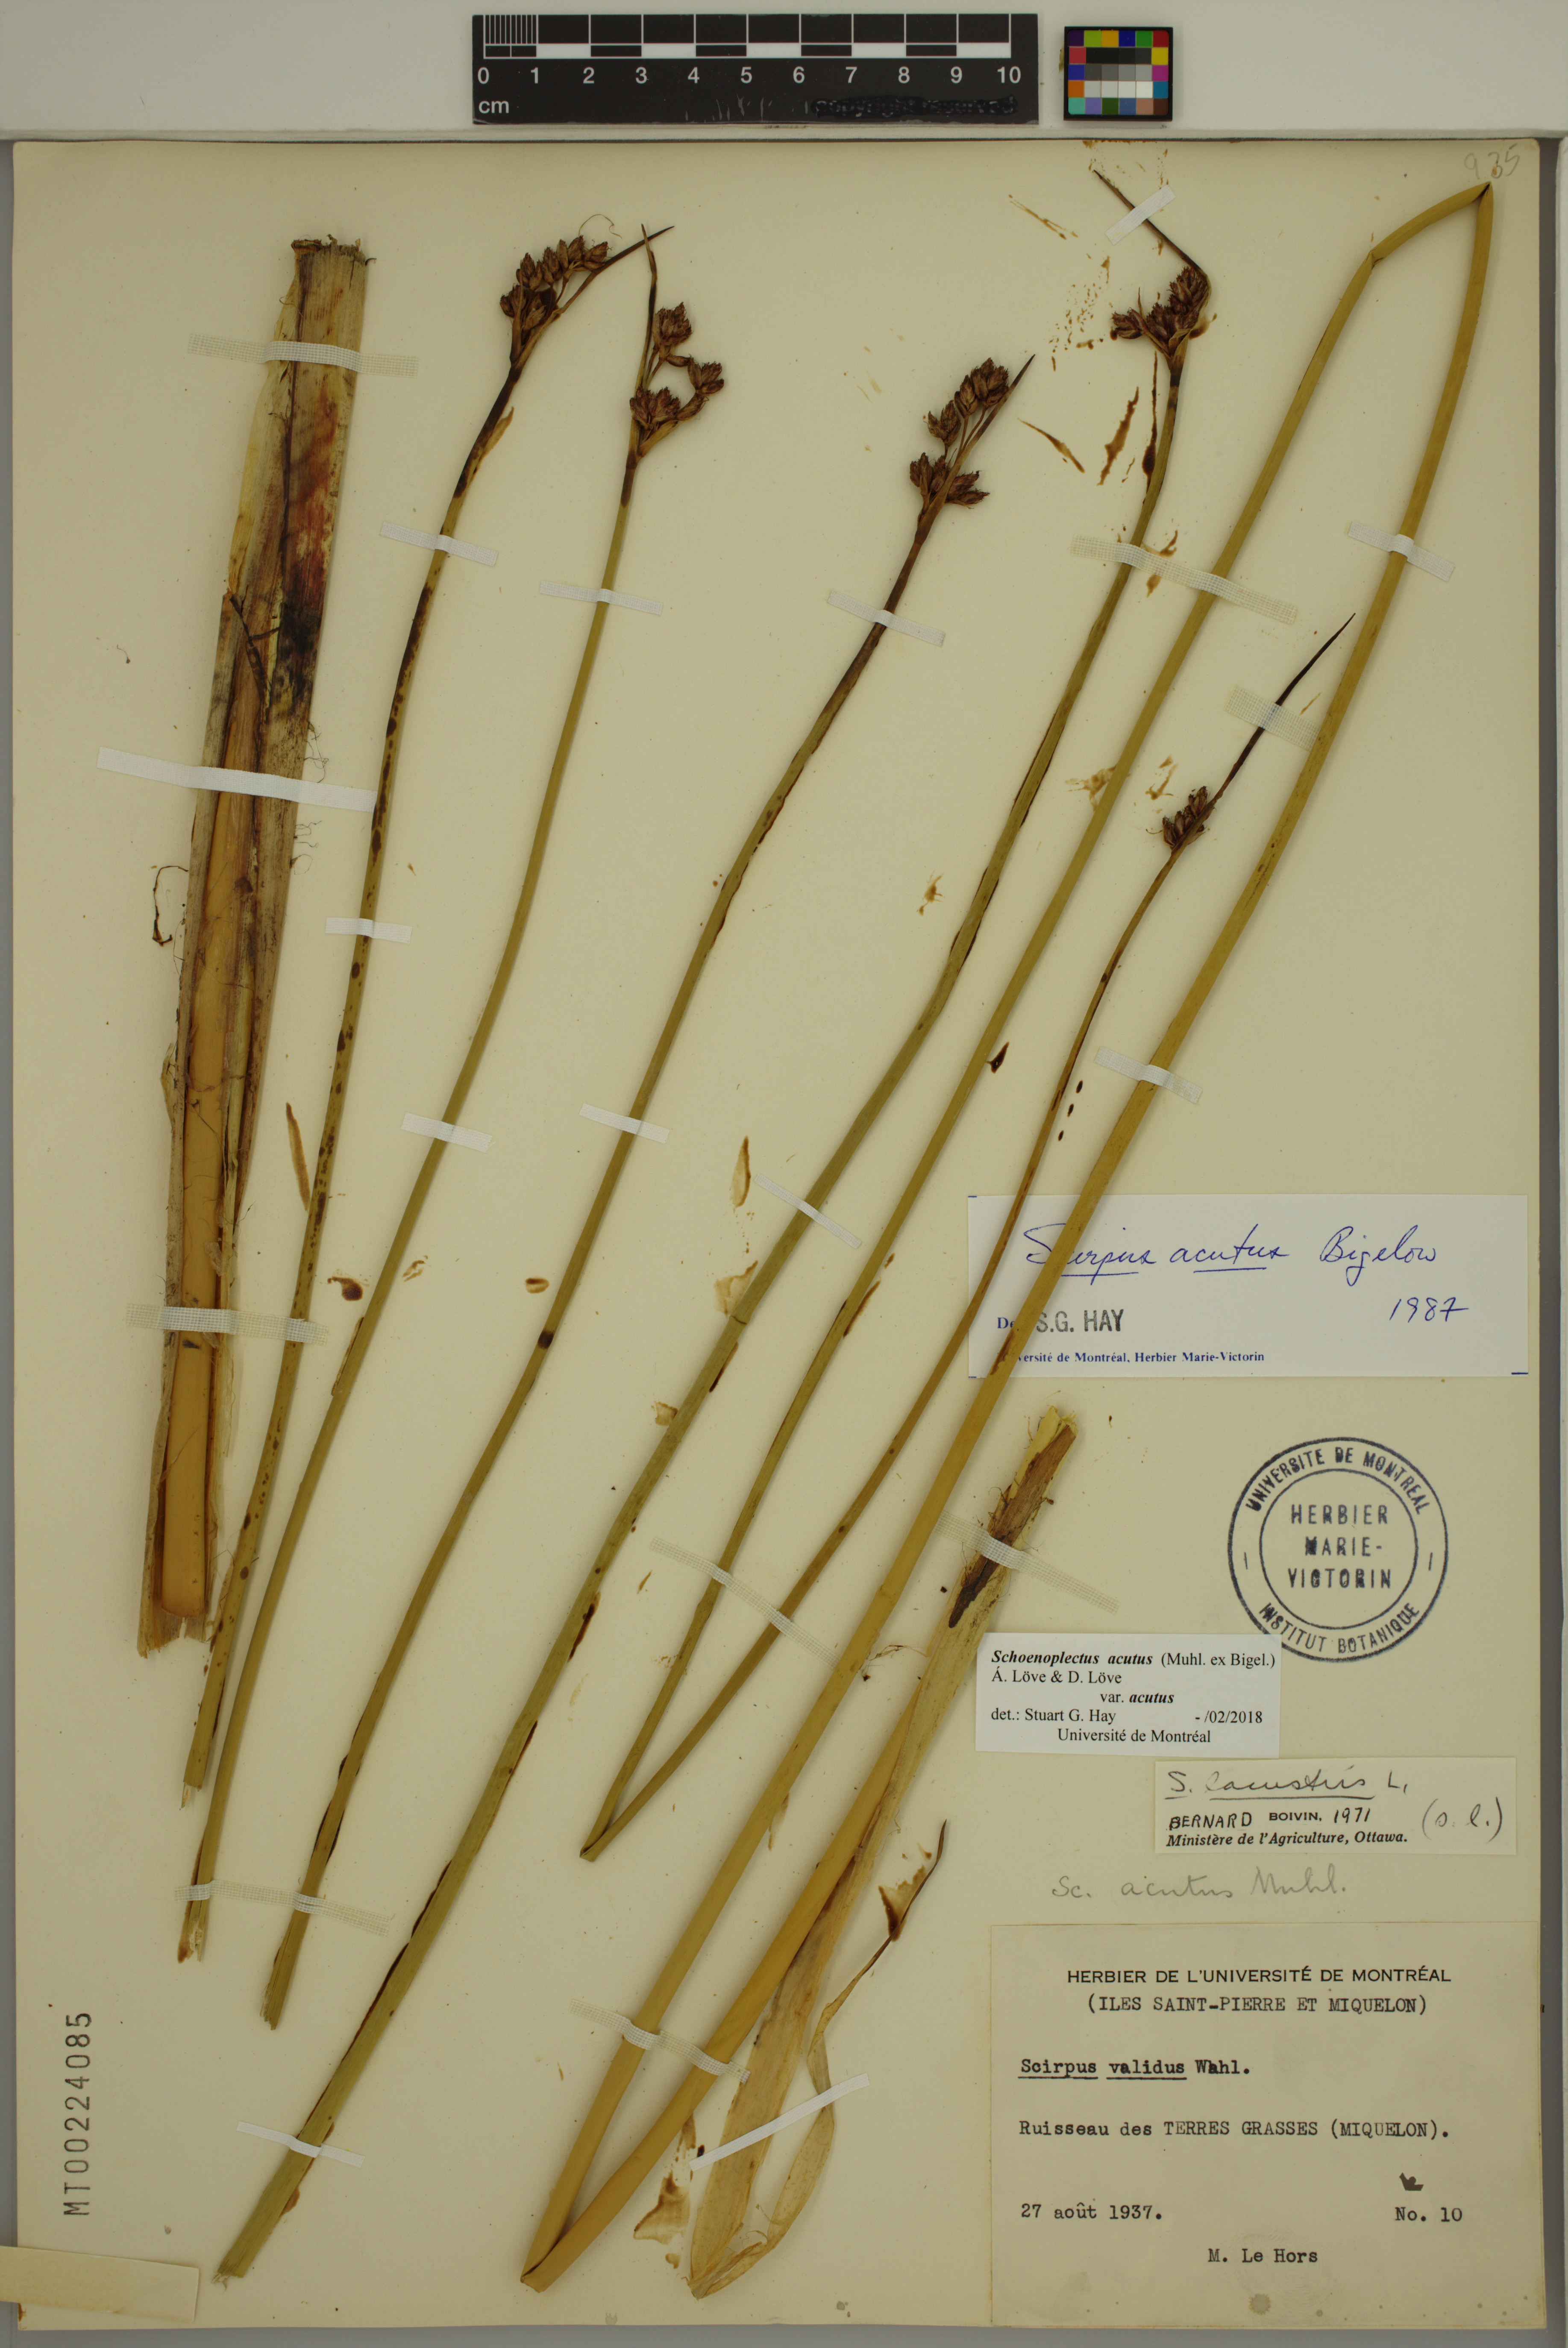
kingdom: Plantae
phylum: Tracheophyta
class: Liliopsida
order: Poales
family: Cyperaceae
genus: Schoenoplectus
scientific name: Schoenoplectus acutus
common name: Hardstem bulrush
